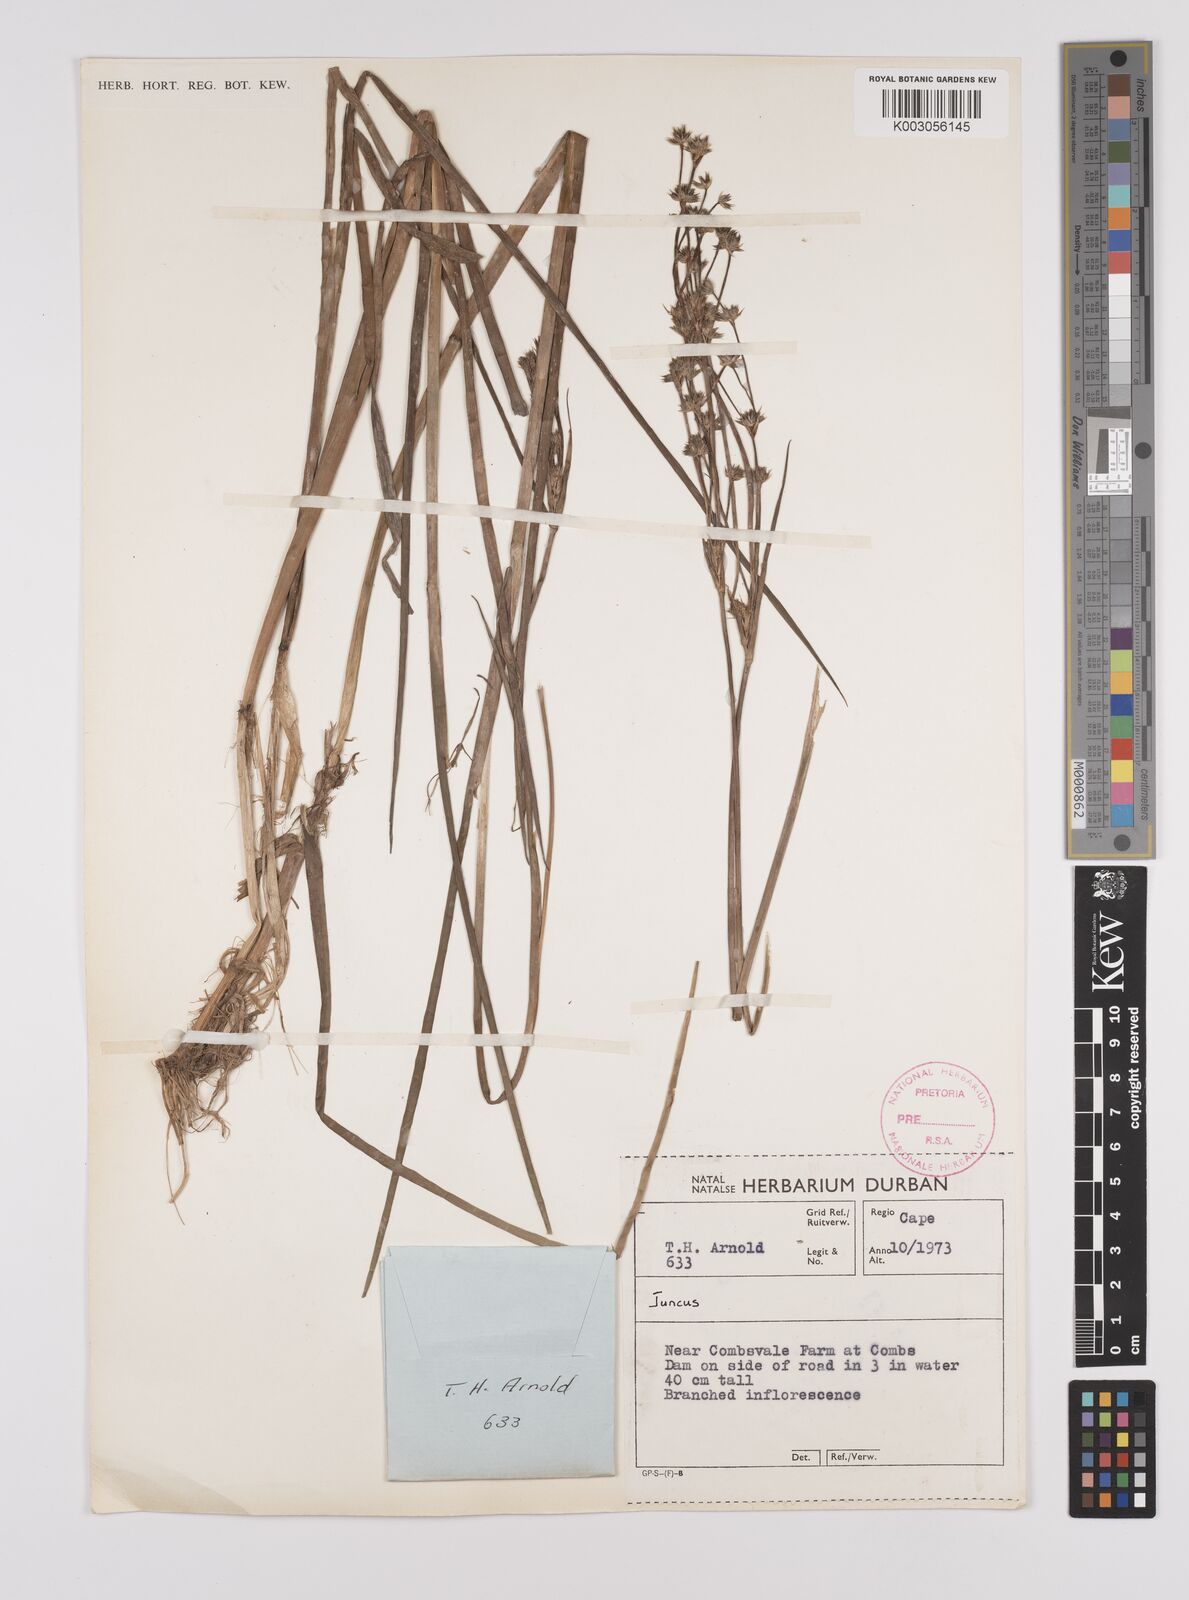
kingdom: Plantae
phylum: Tracheophyta
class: Liliopsida
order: Poales
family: Juncaceae
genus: Juncus
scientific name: Juncus
